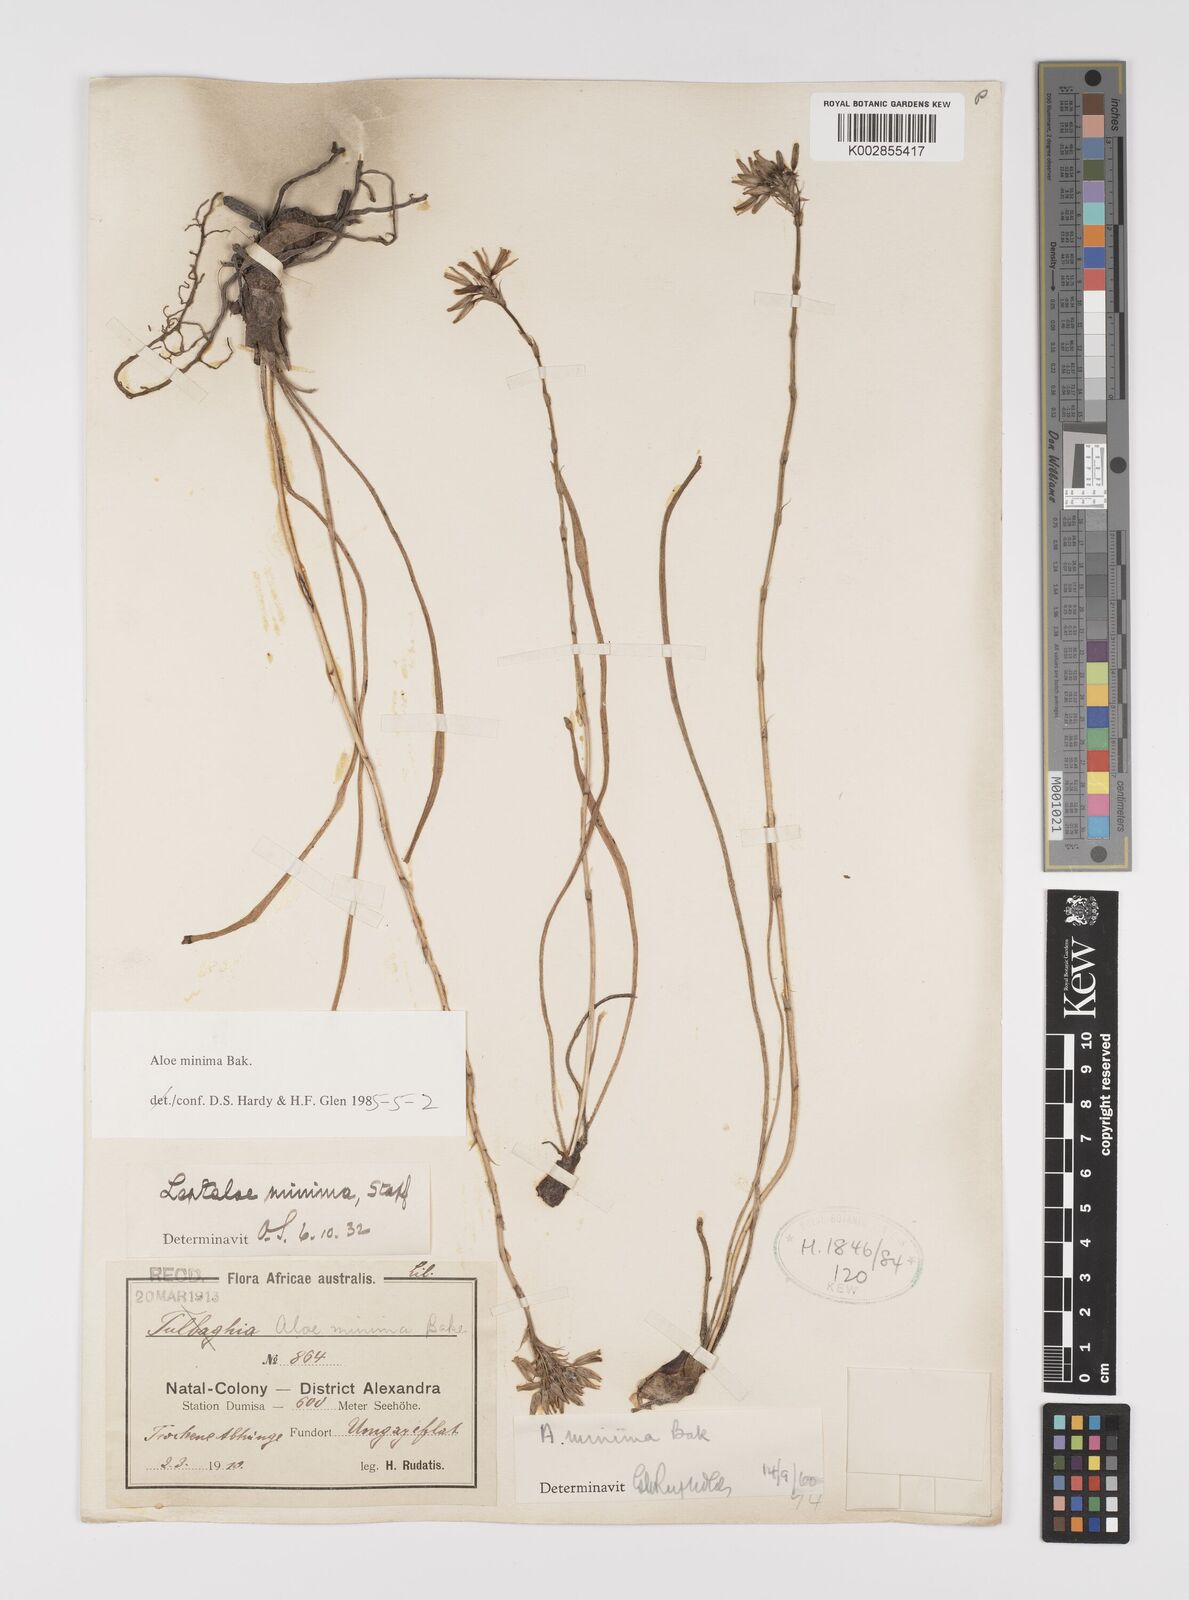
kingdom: Plantae
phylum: Tracheophyta
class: Liliopsida
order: Asparagales
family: Asphodelaceae
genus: Aloe
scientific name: Aloe minima
